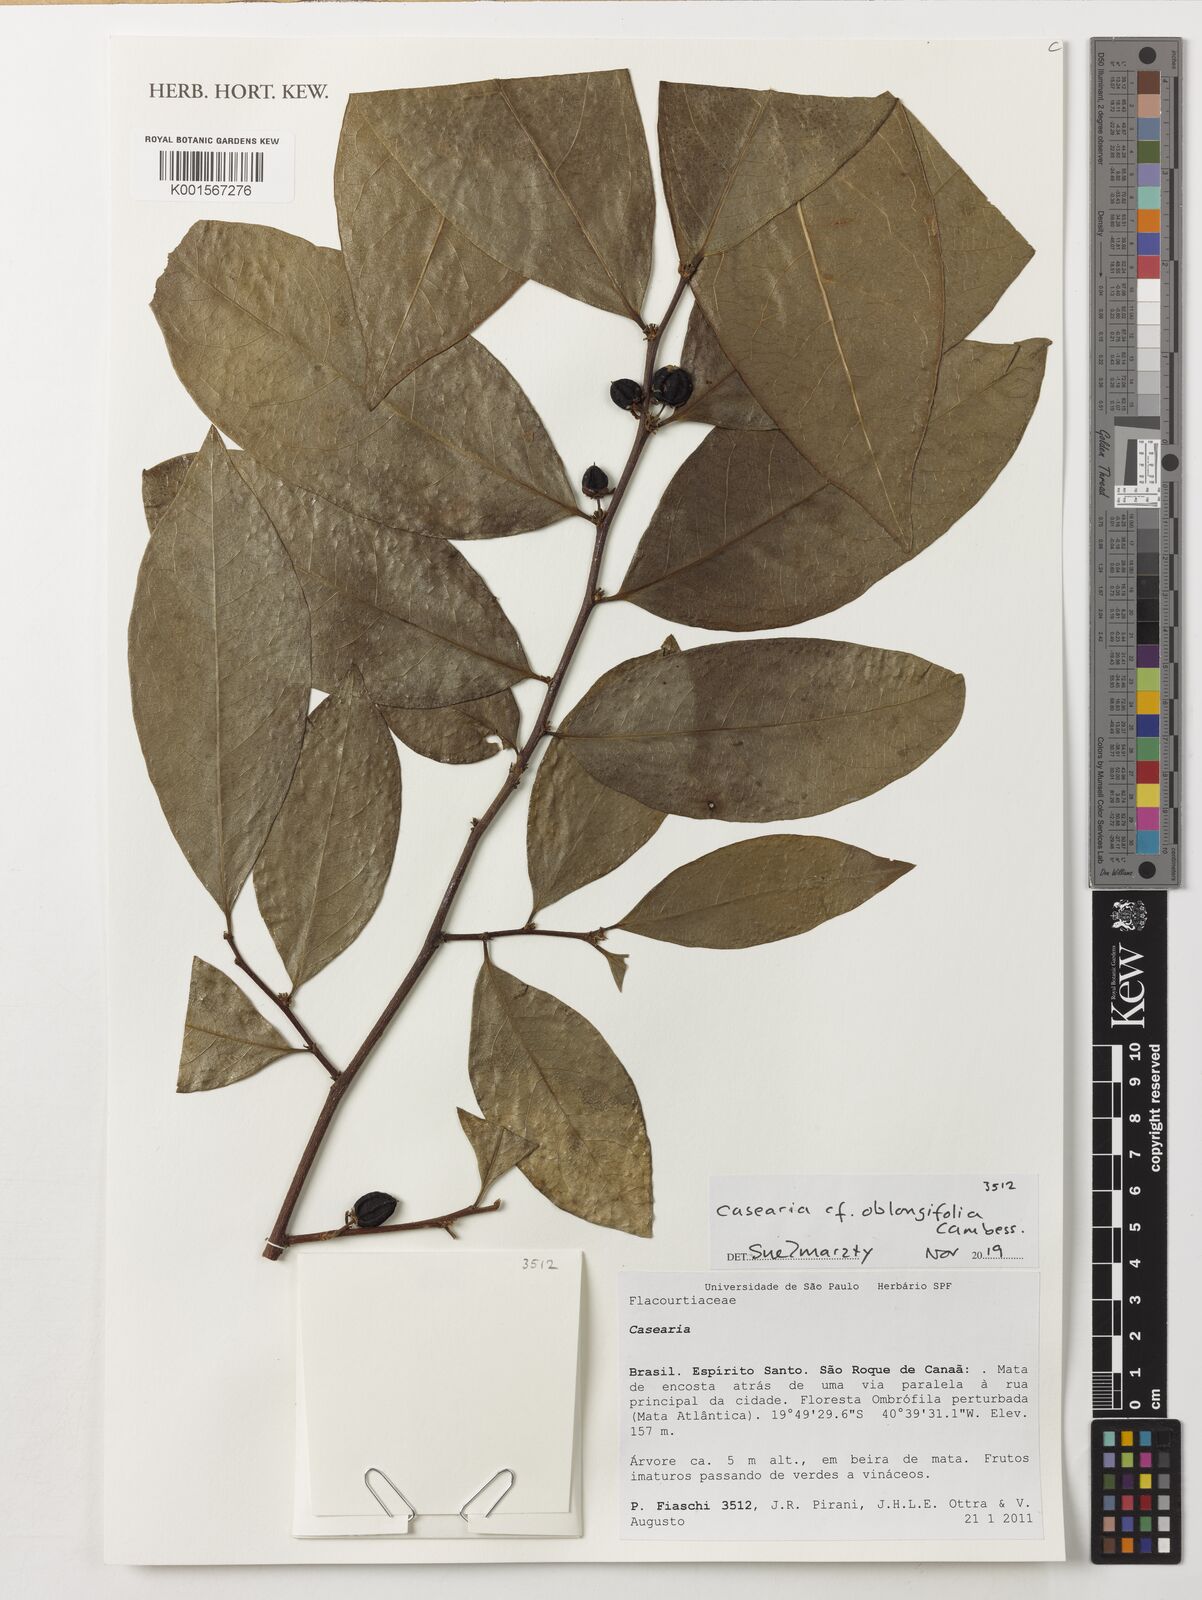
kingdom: Plantae
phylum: Tracheophyta
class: Magnoliopsida
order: Malpighiales
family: Salicaceae
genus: Casearia
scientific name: Casearia oblongifolia
